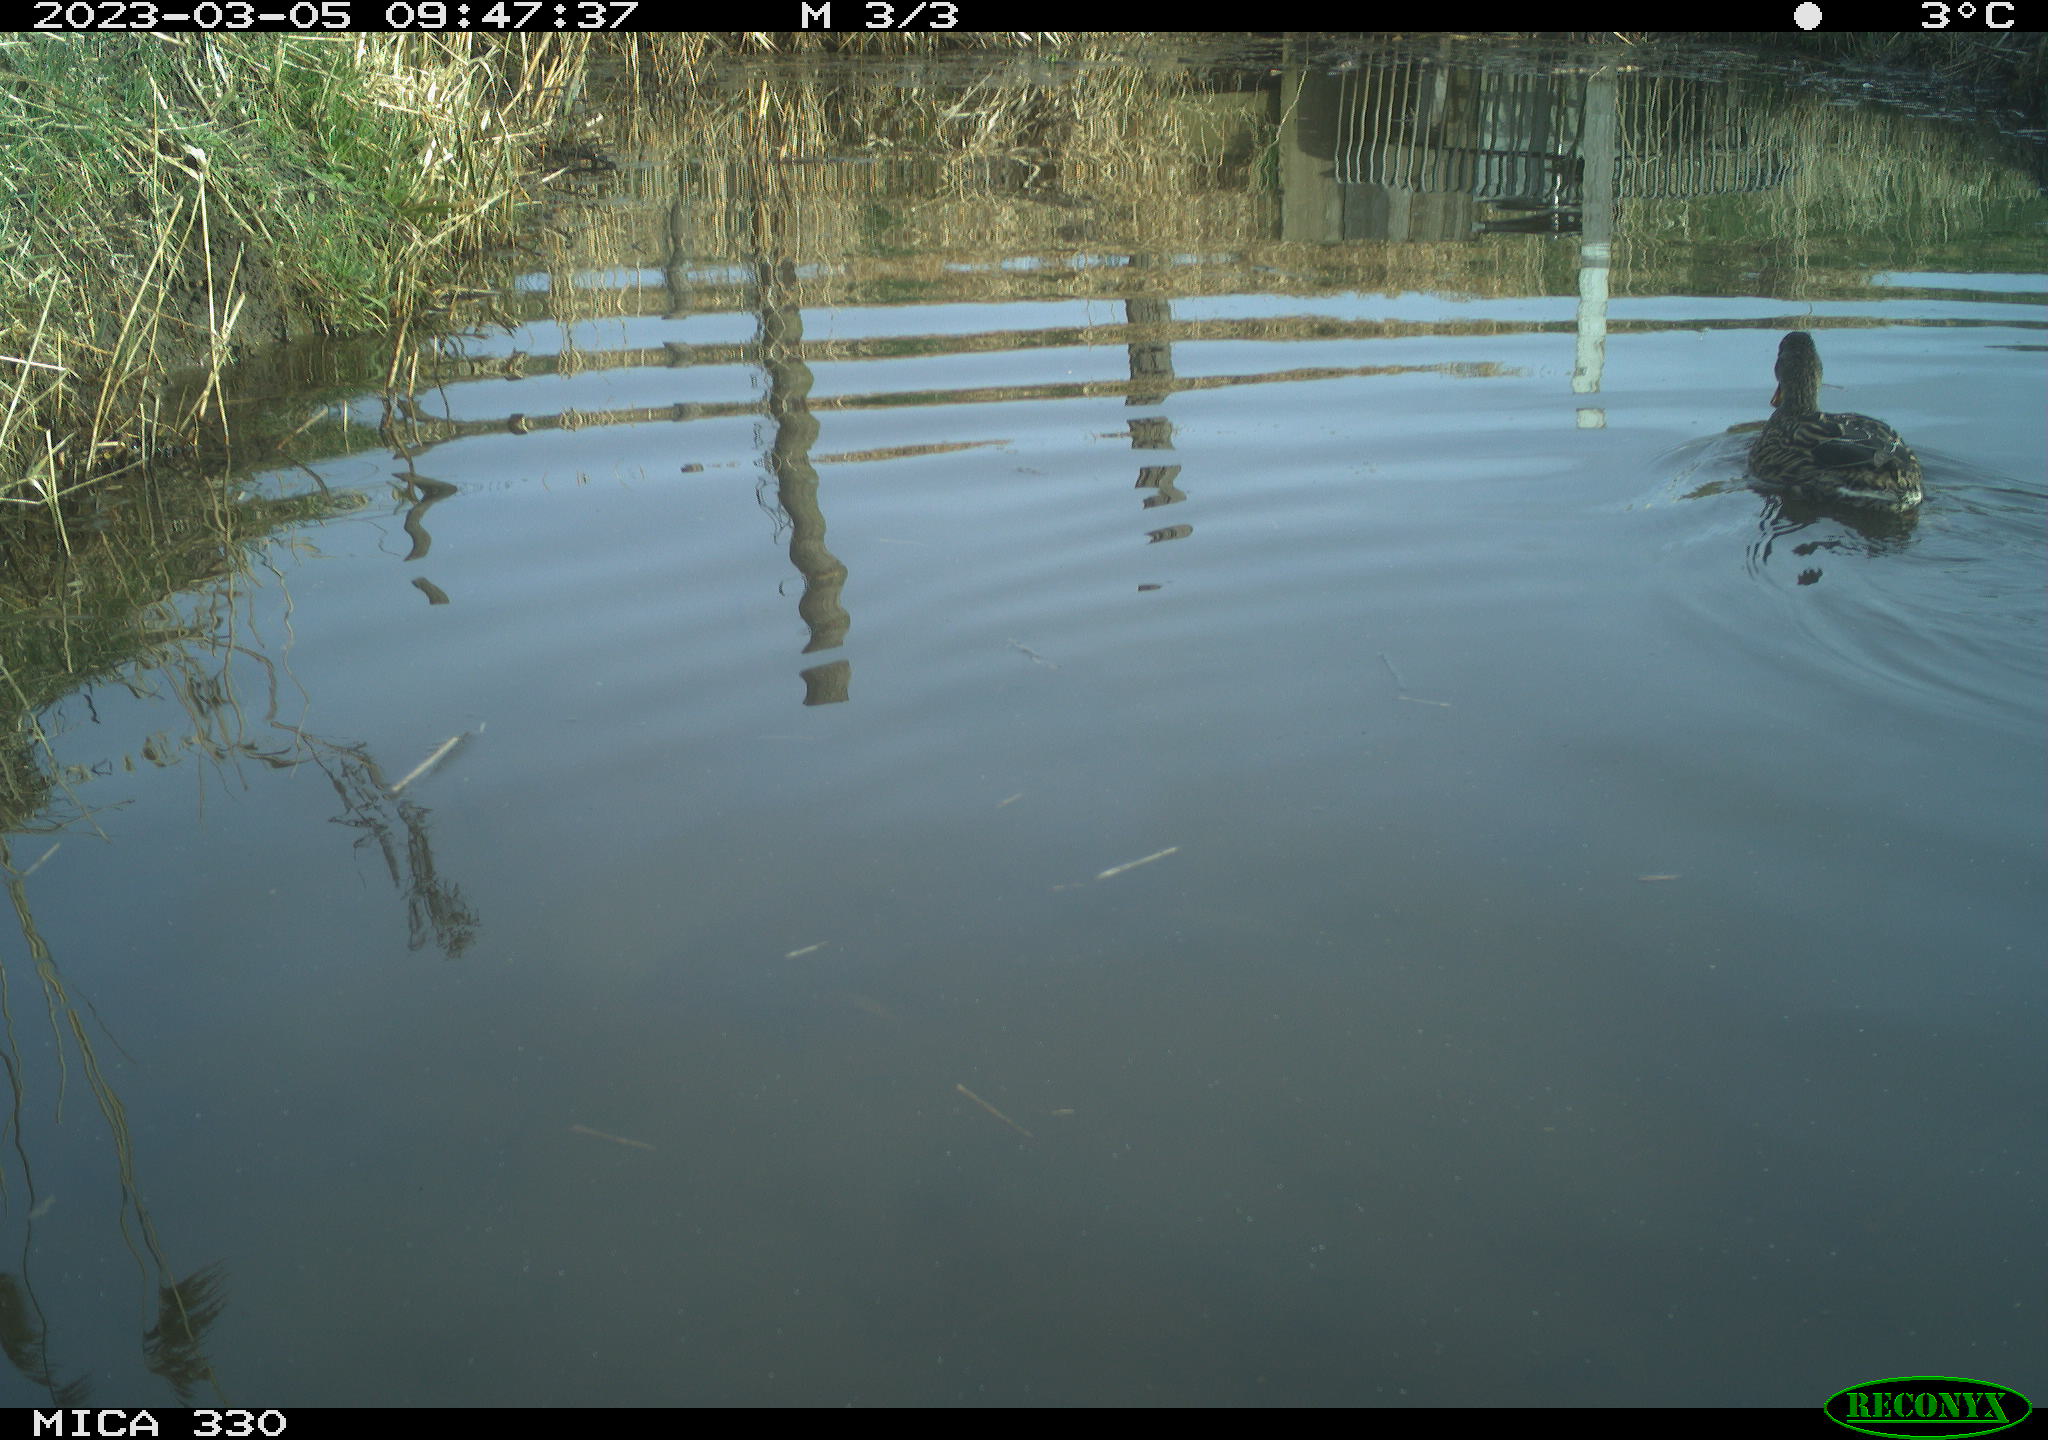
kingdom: Animalia
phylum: Chordata
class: Aves
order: Anseriformes
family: Anatidae
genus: Anas
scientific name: Anas
